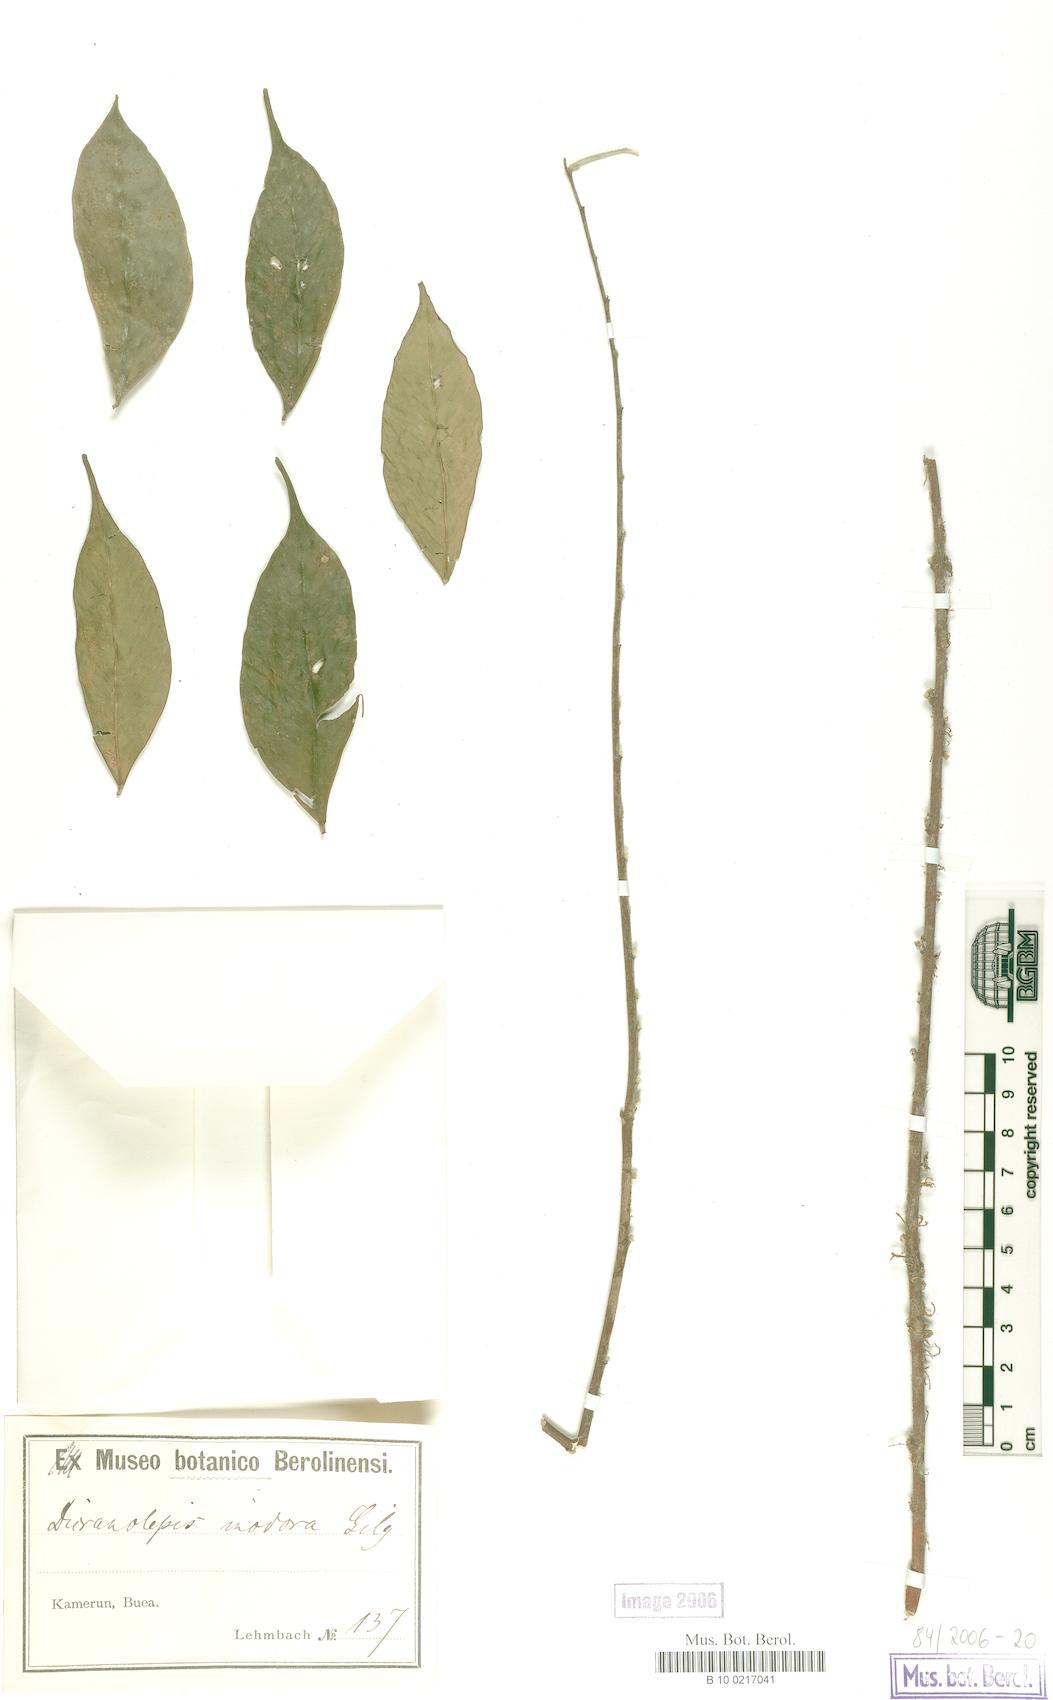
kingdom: Plantae
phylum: Tracheophyta
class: Magnoliopsida
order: Malvales
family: Thymelaeaceae
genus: Dicranolepis
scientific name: Dicranolepis vestita
